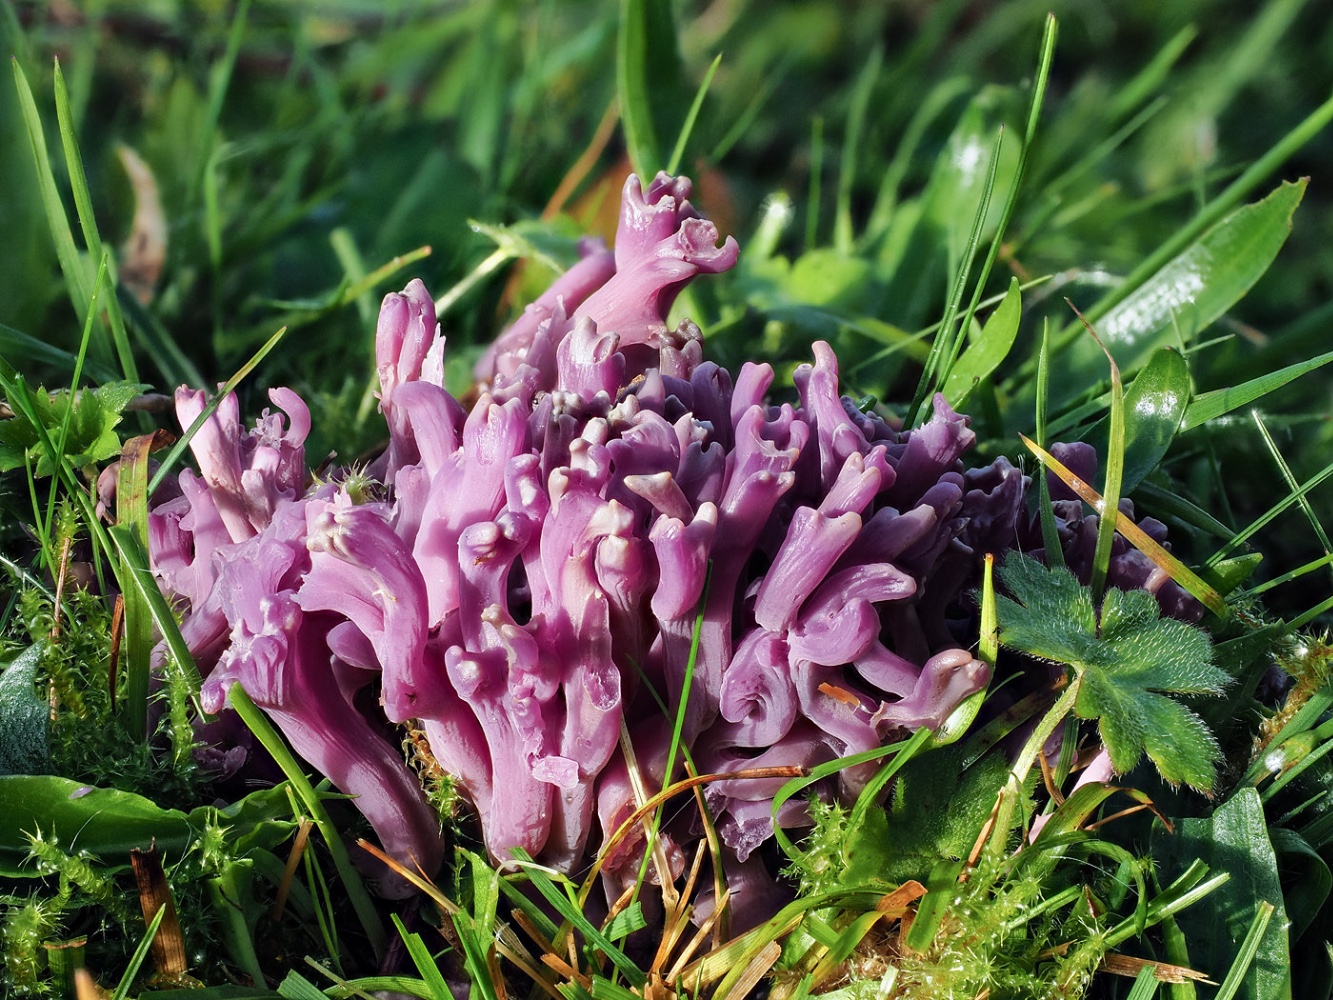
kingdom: Fungi
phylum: Basidiomycota
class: Agaricomycetes
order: Agaricales
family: Clavariaceae
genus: Clavaria
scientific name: Clavaria zollingeri
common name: purpur-køllesvamp
